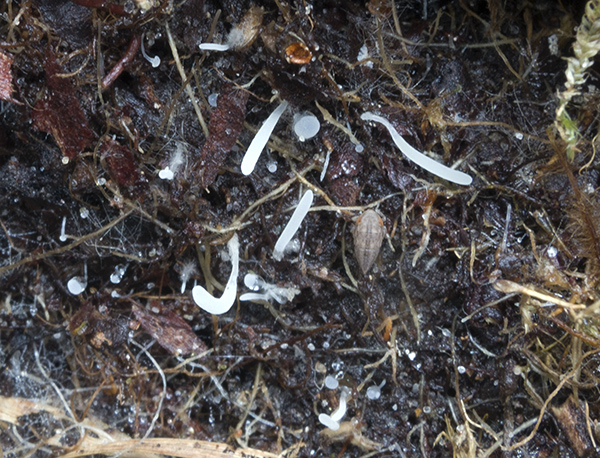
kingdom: Fungi
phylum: Basidiomycota
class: Agaricomycetes
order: Agaricales
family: Clavariaceae
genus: Ramariopsis
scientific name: Ramariopsis
